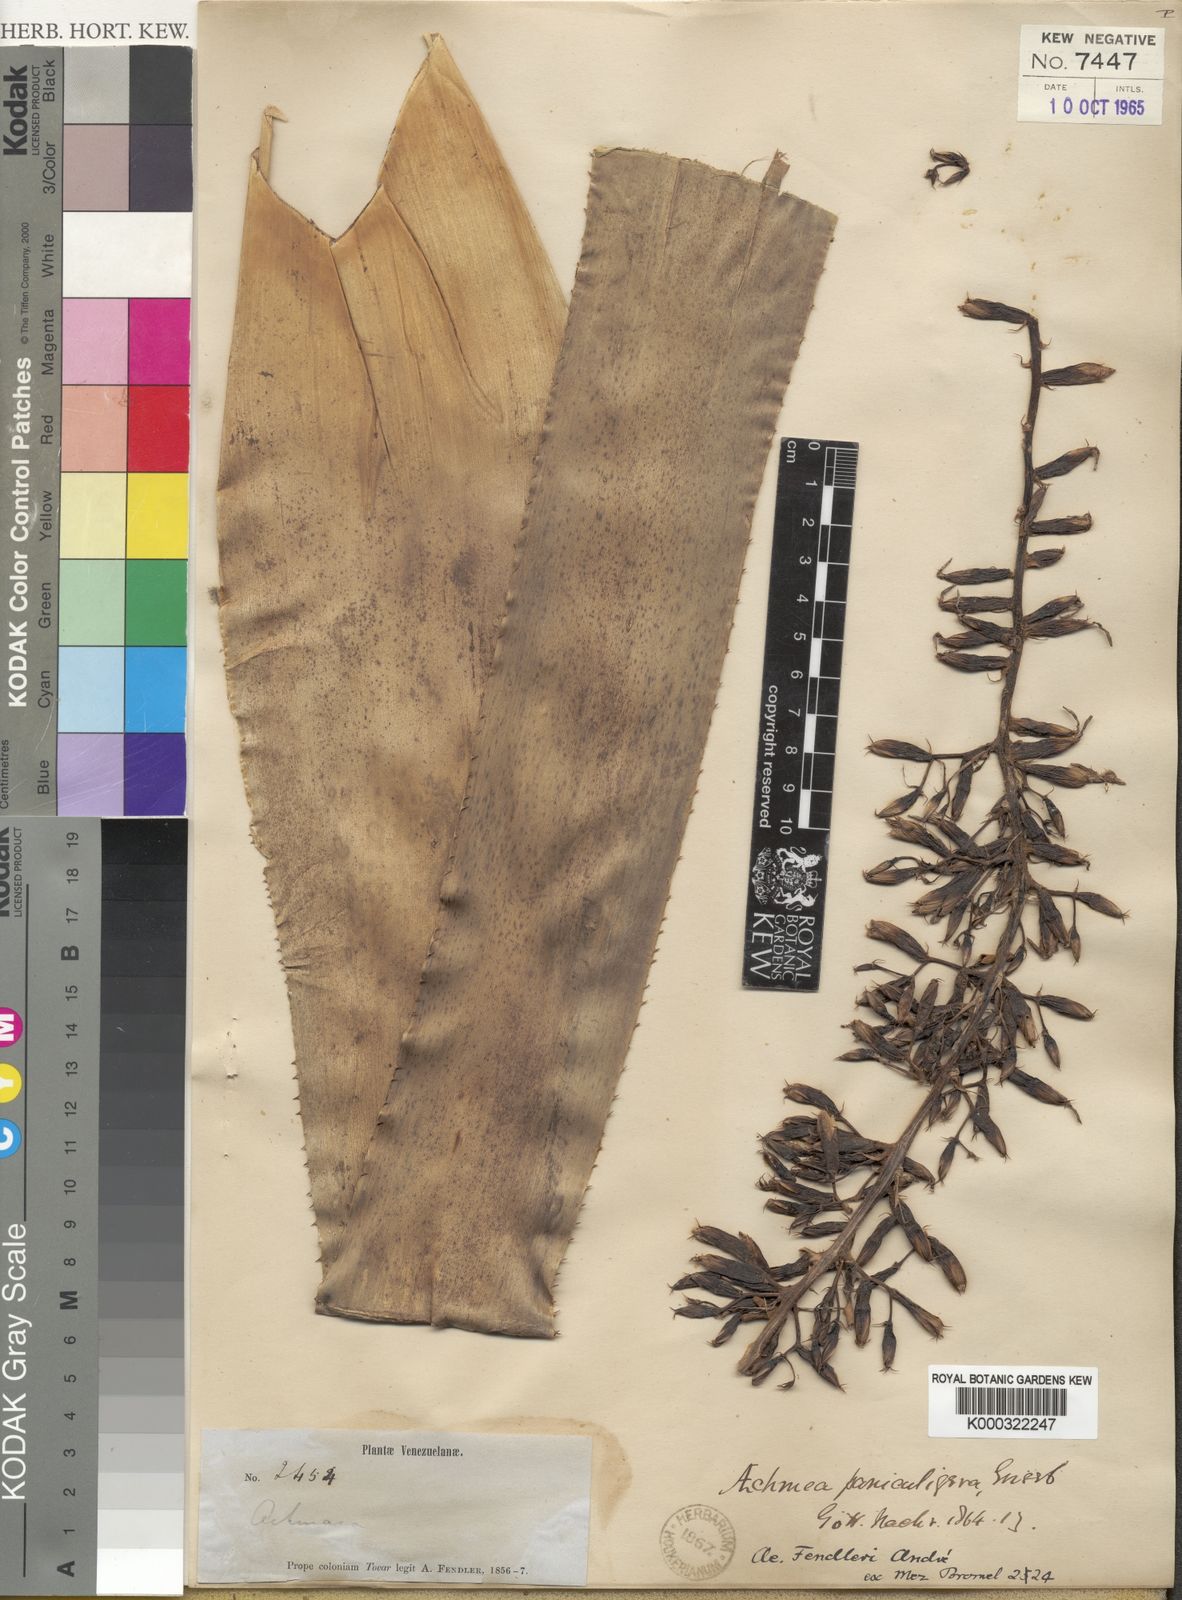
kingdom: Plantae
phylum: Tracheophyta
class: Liliopsida
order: Poales
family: Bromeliaceae
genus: Aechmea
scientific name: Aechmea
